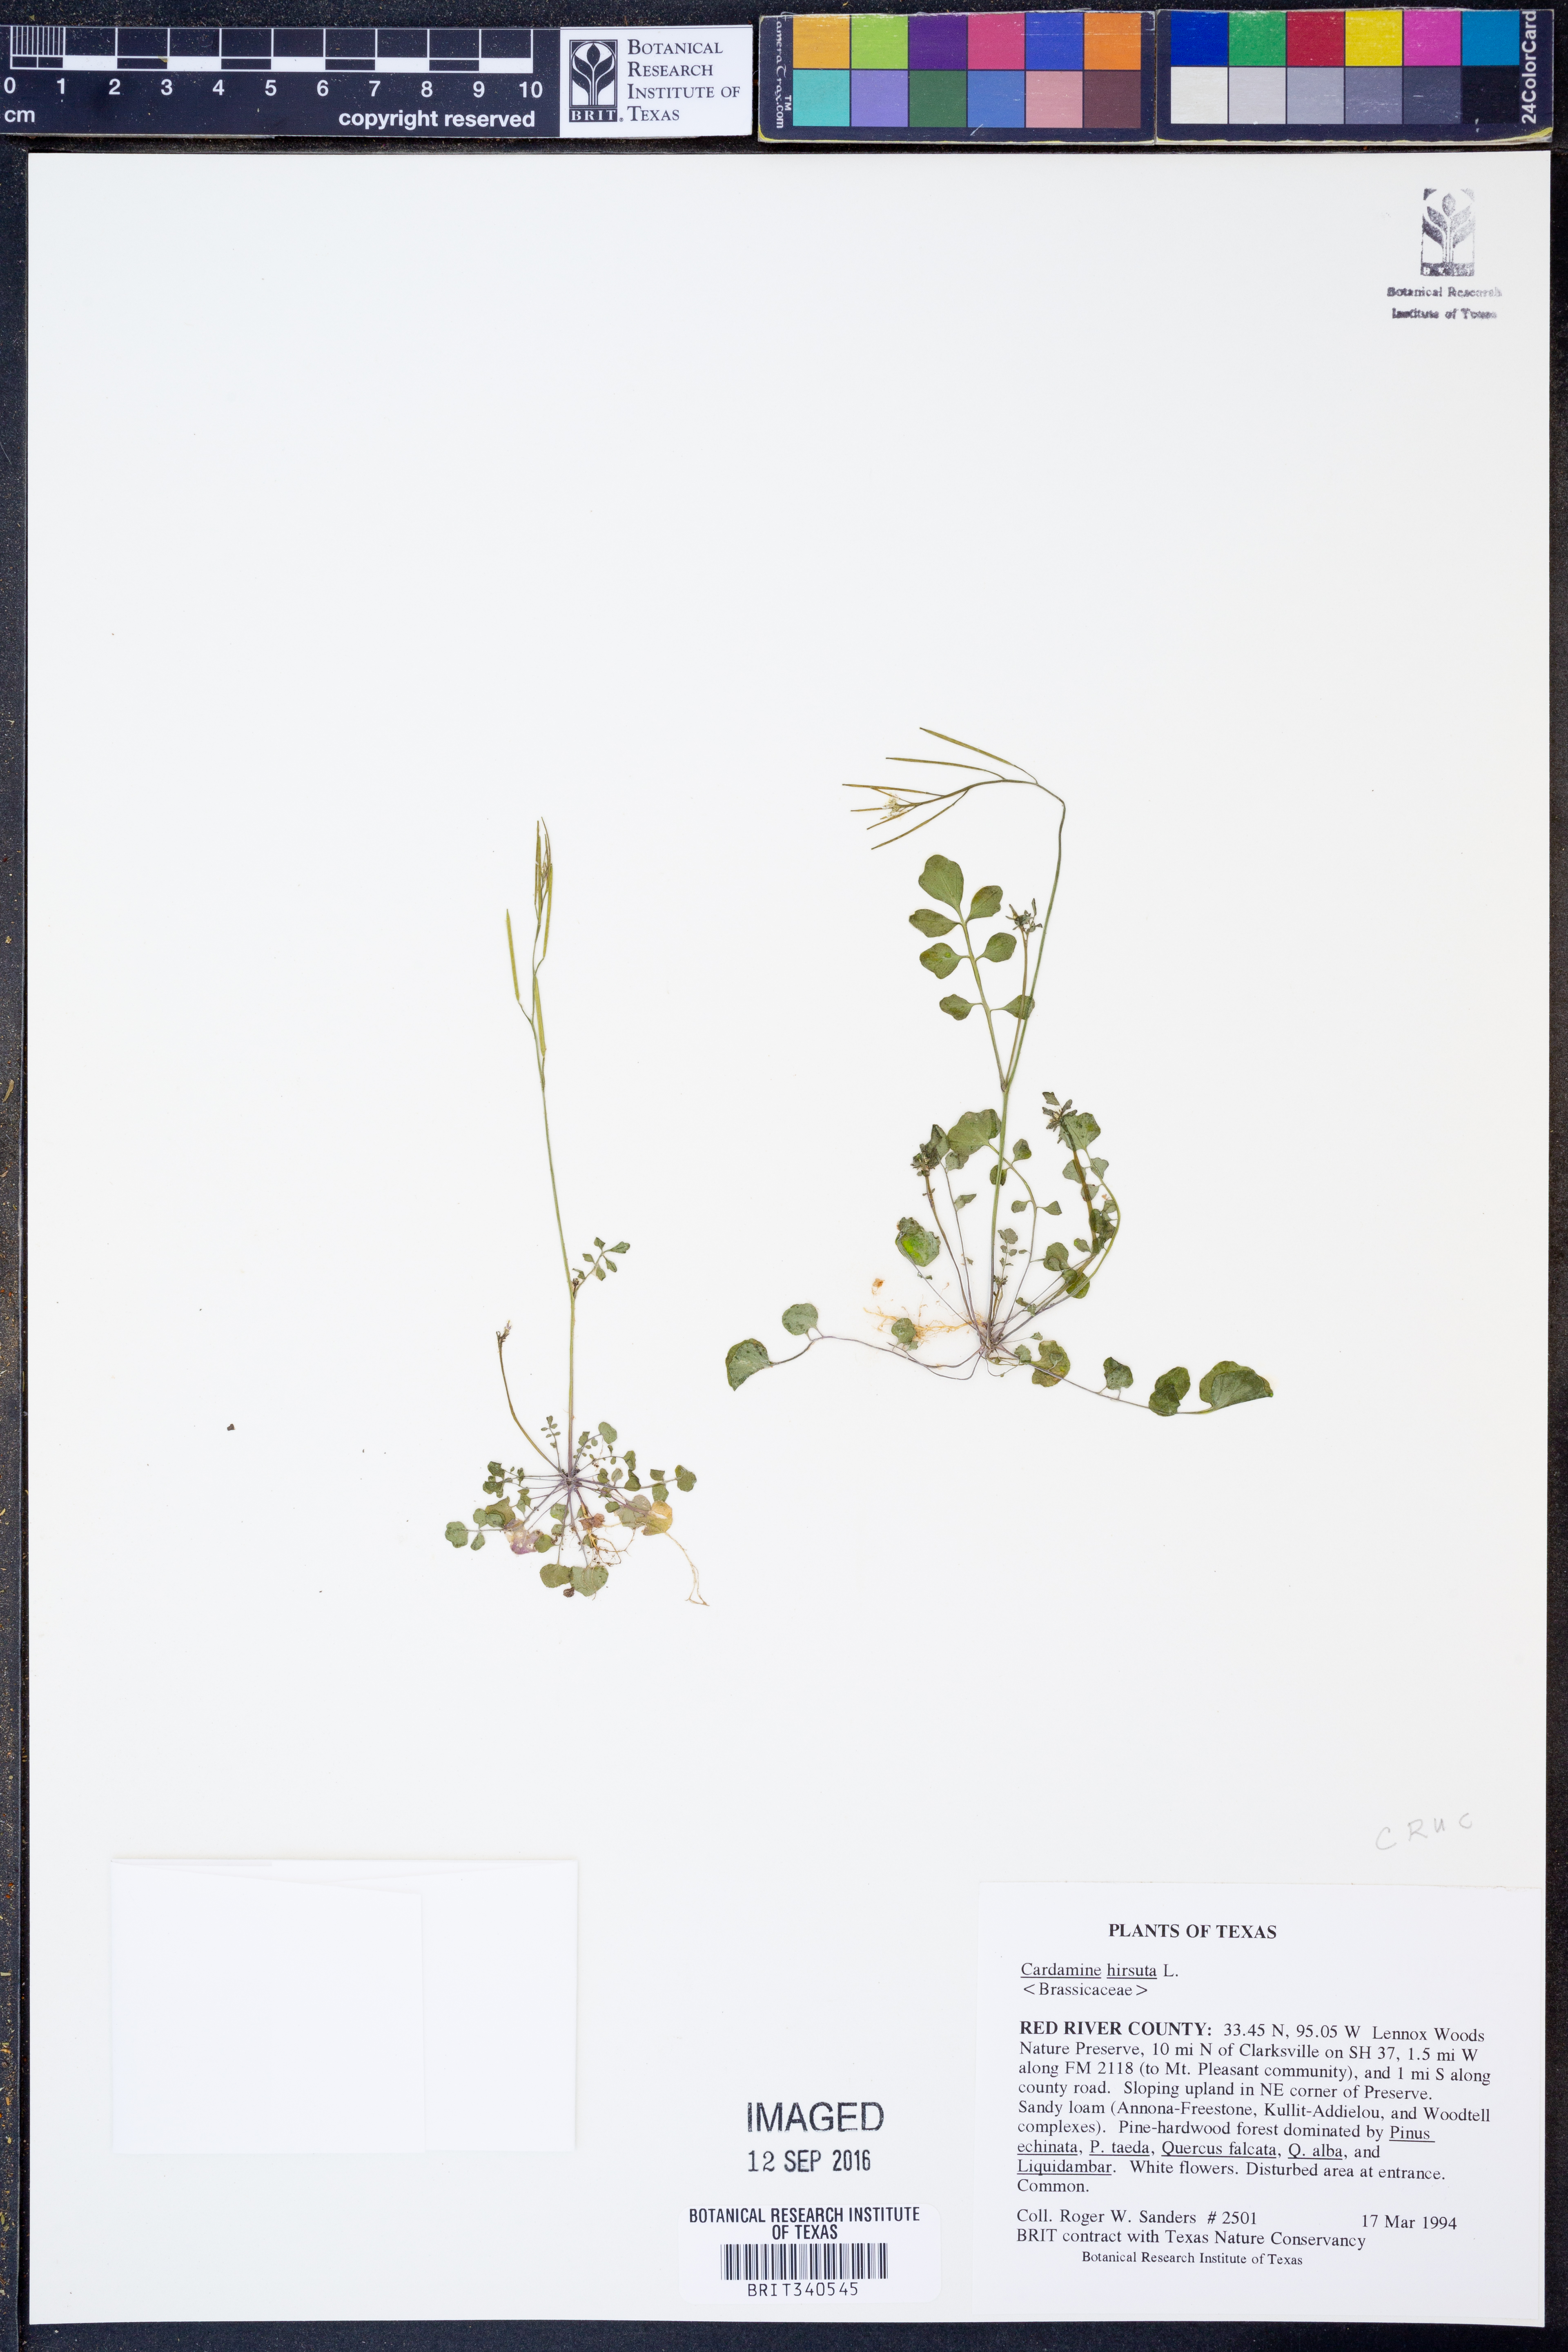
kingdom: Plantae
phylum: Tracheophyta
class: Magnoliopsida
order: Brassicales
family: Brassicaceae
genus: Cardamine
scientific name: Cardamine hirsuta
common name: Hairy bittercress
